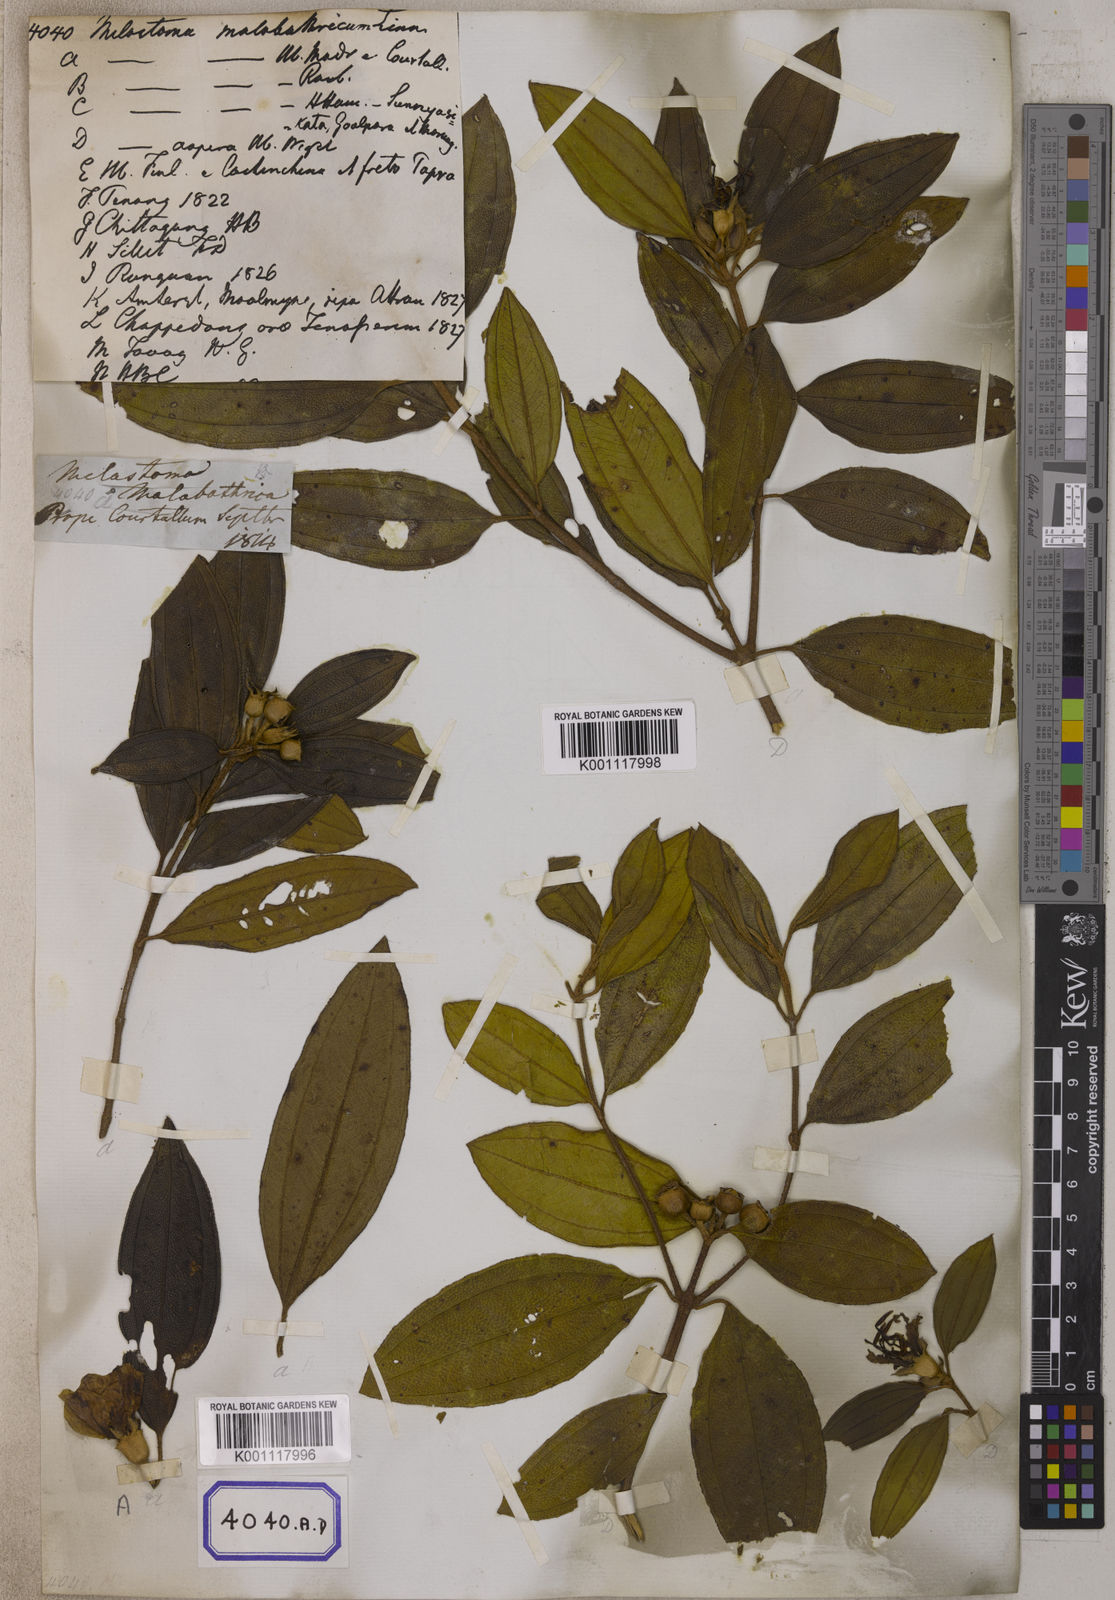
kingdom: Plantae
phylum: Tracheophyta
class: Magnoliopsida
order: Myrtales
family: Melastomataceae
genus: Melastoma
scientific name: Melastoma malabathricum
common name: Indian-rhododendron
